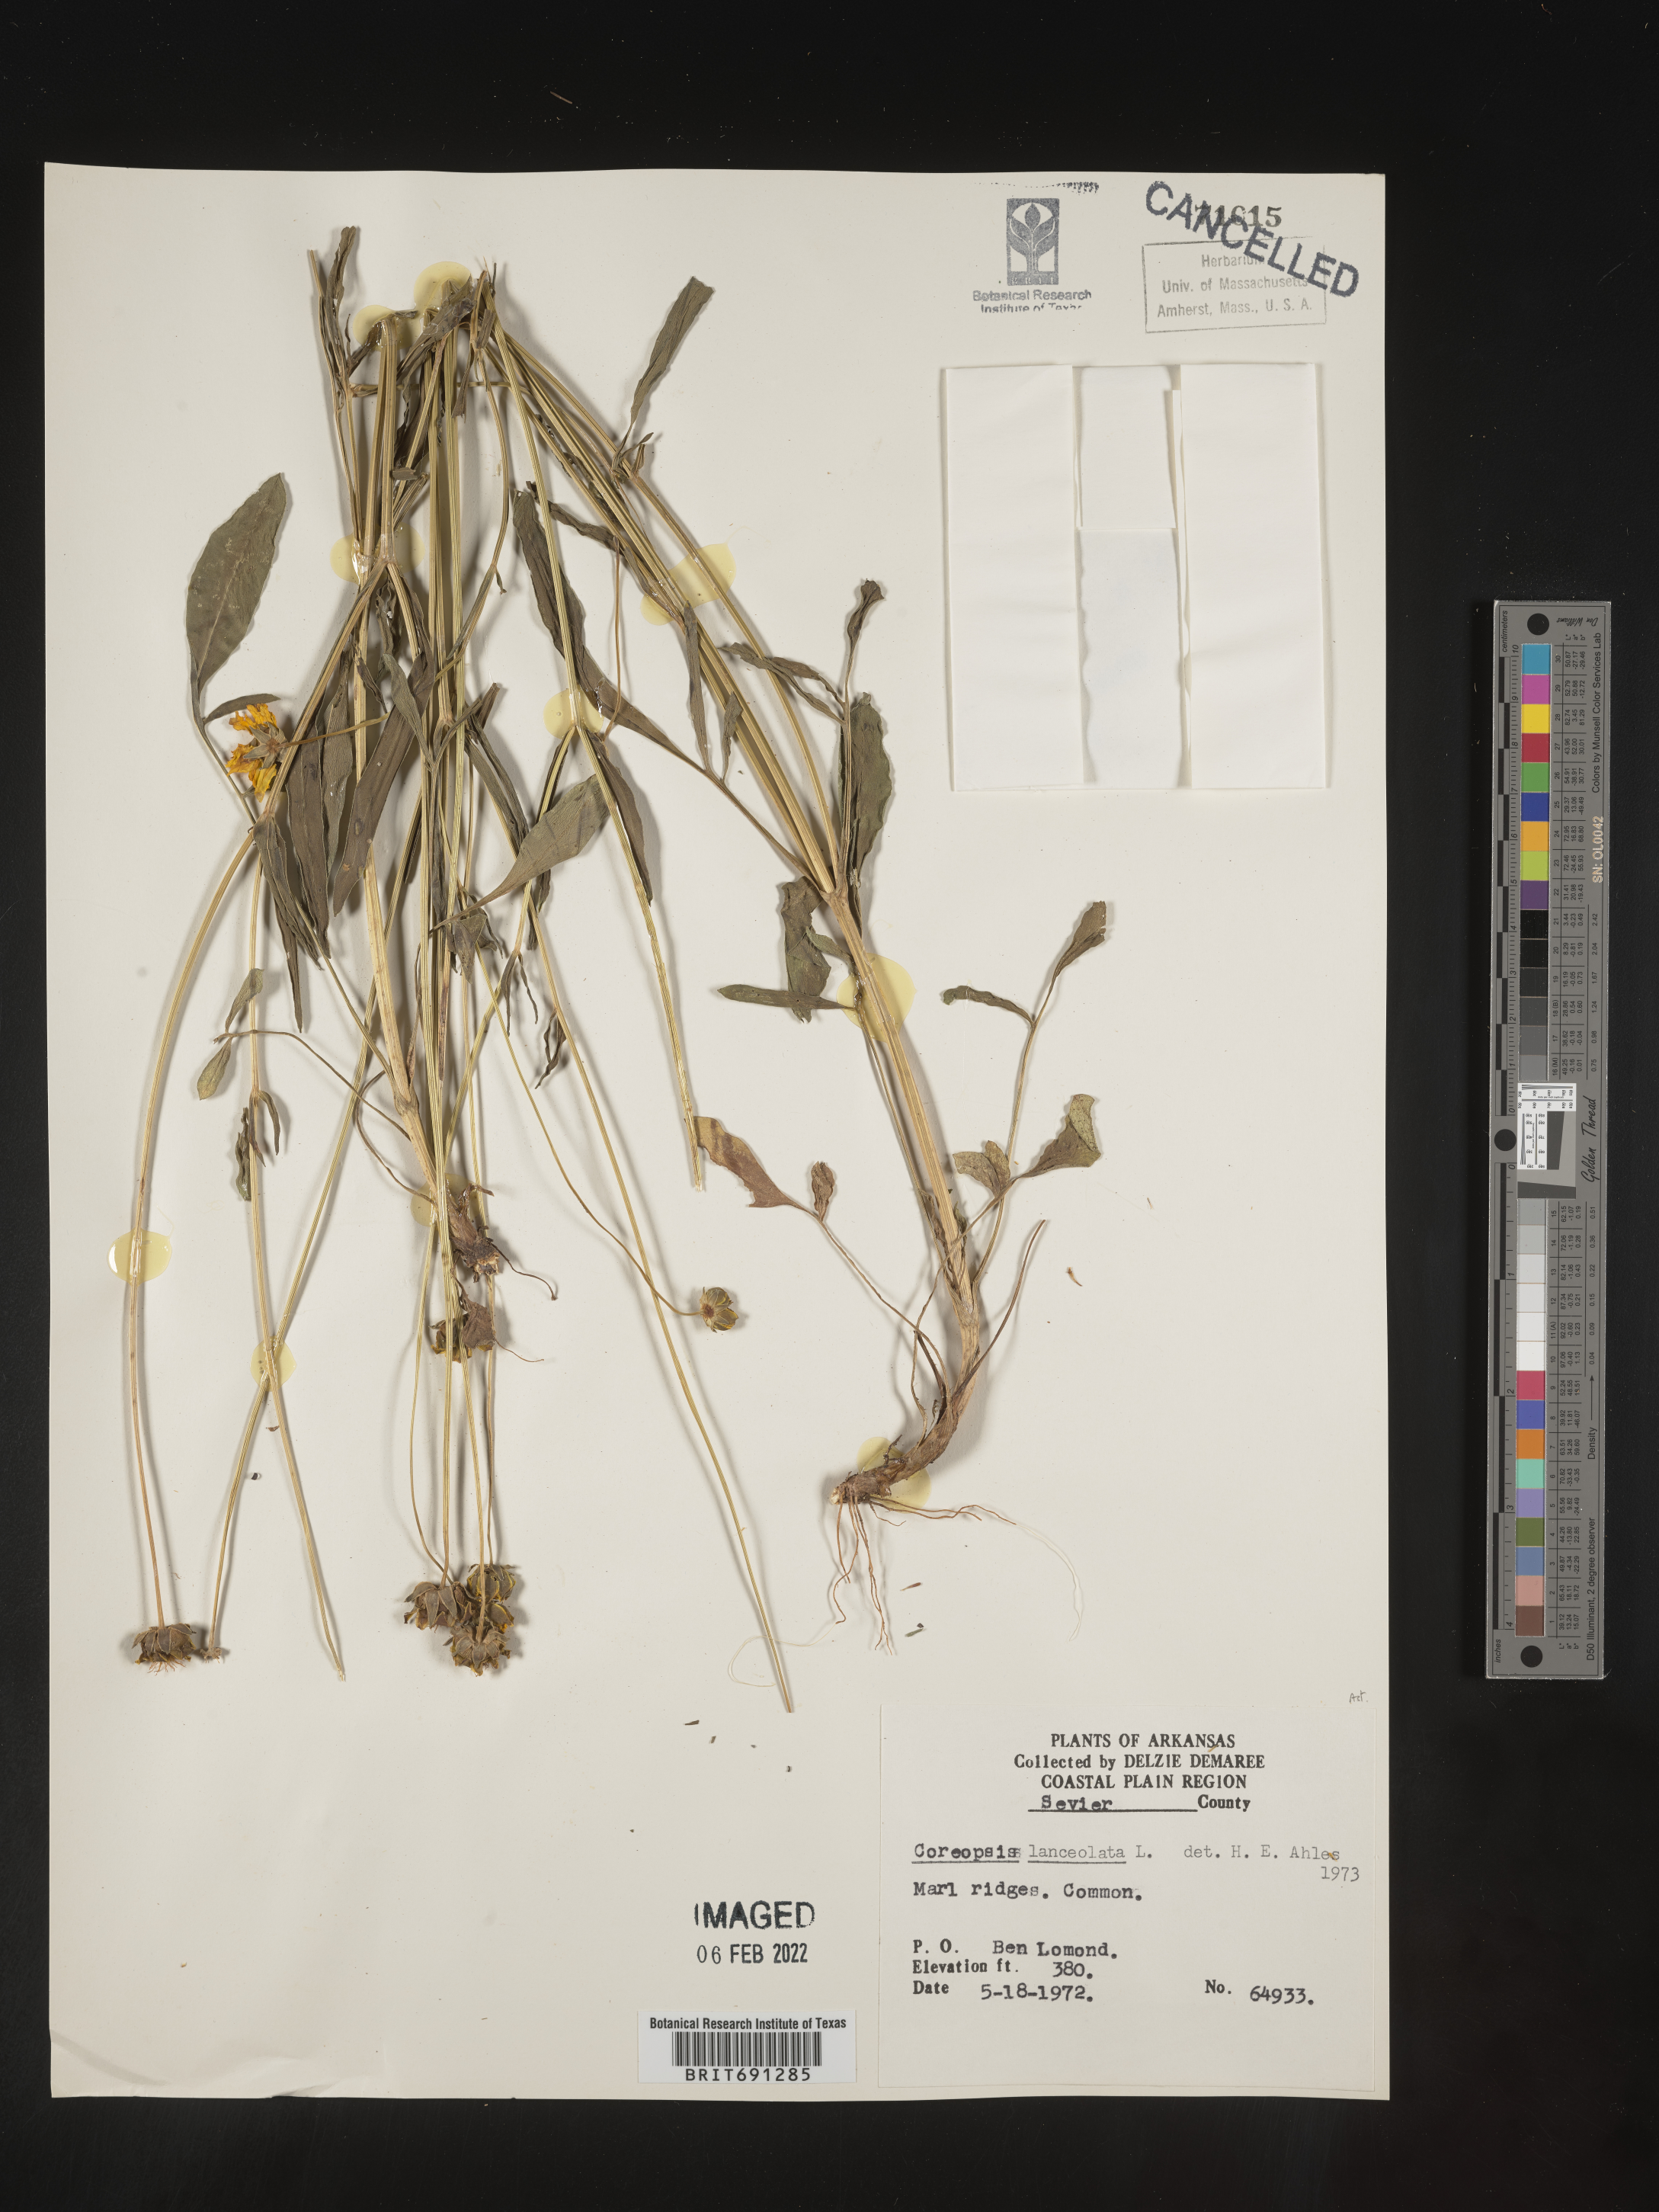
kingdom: Plantae
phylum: Tracheophyta
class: Magnoliopsida
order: Asterales
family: Asteraceae
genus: Coreopsis
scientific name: Coreopsis lanceolata
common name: Garden coreopsis
